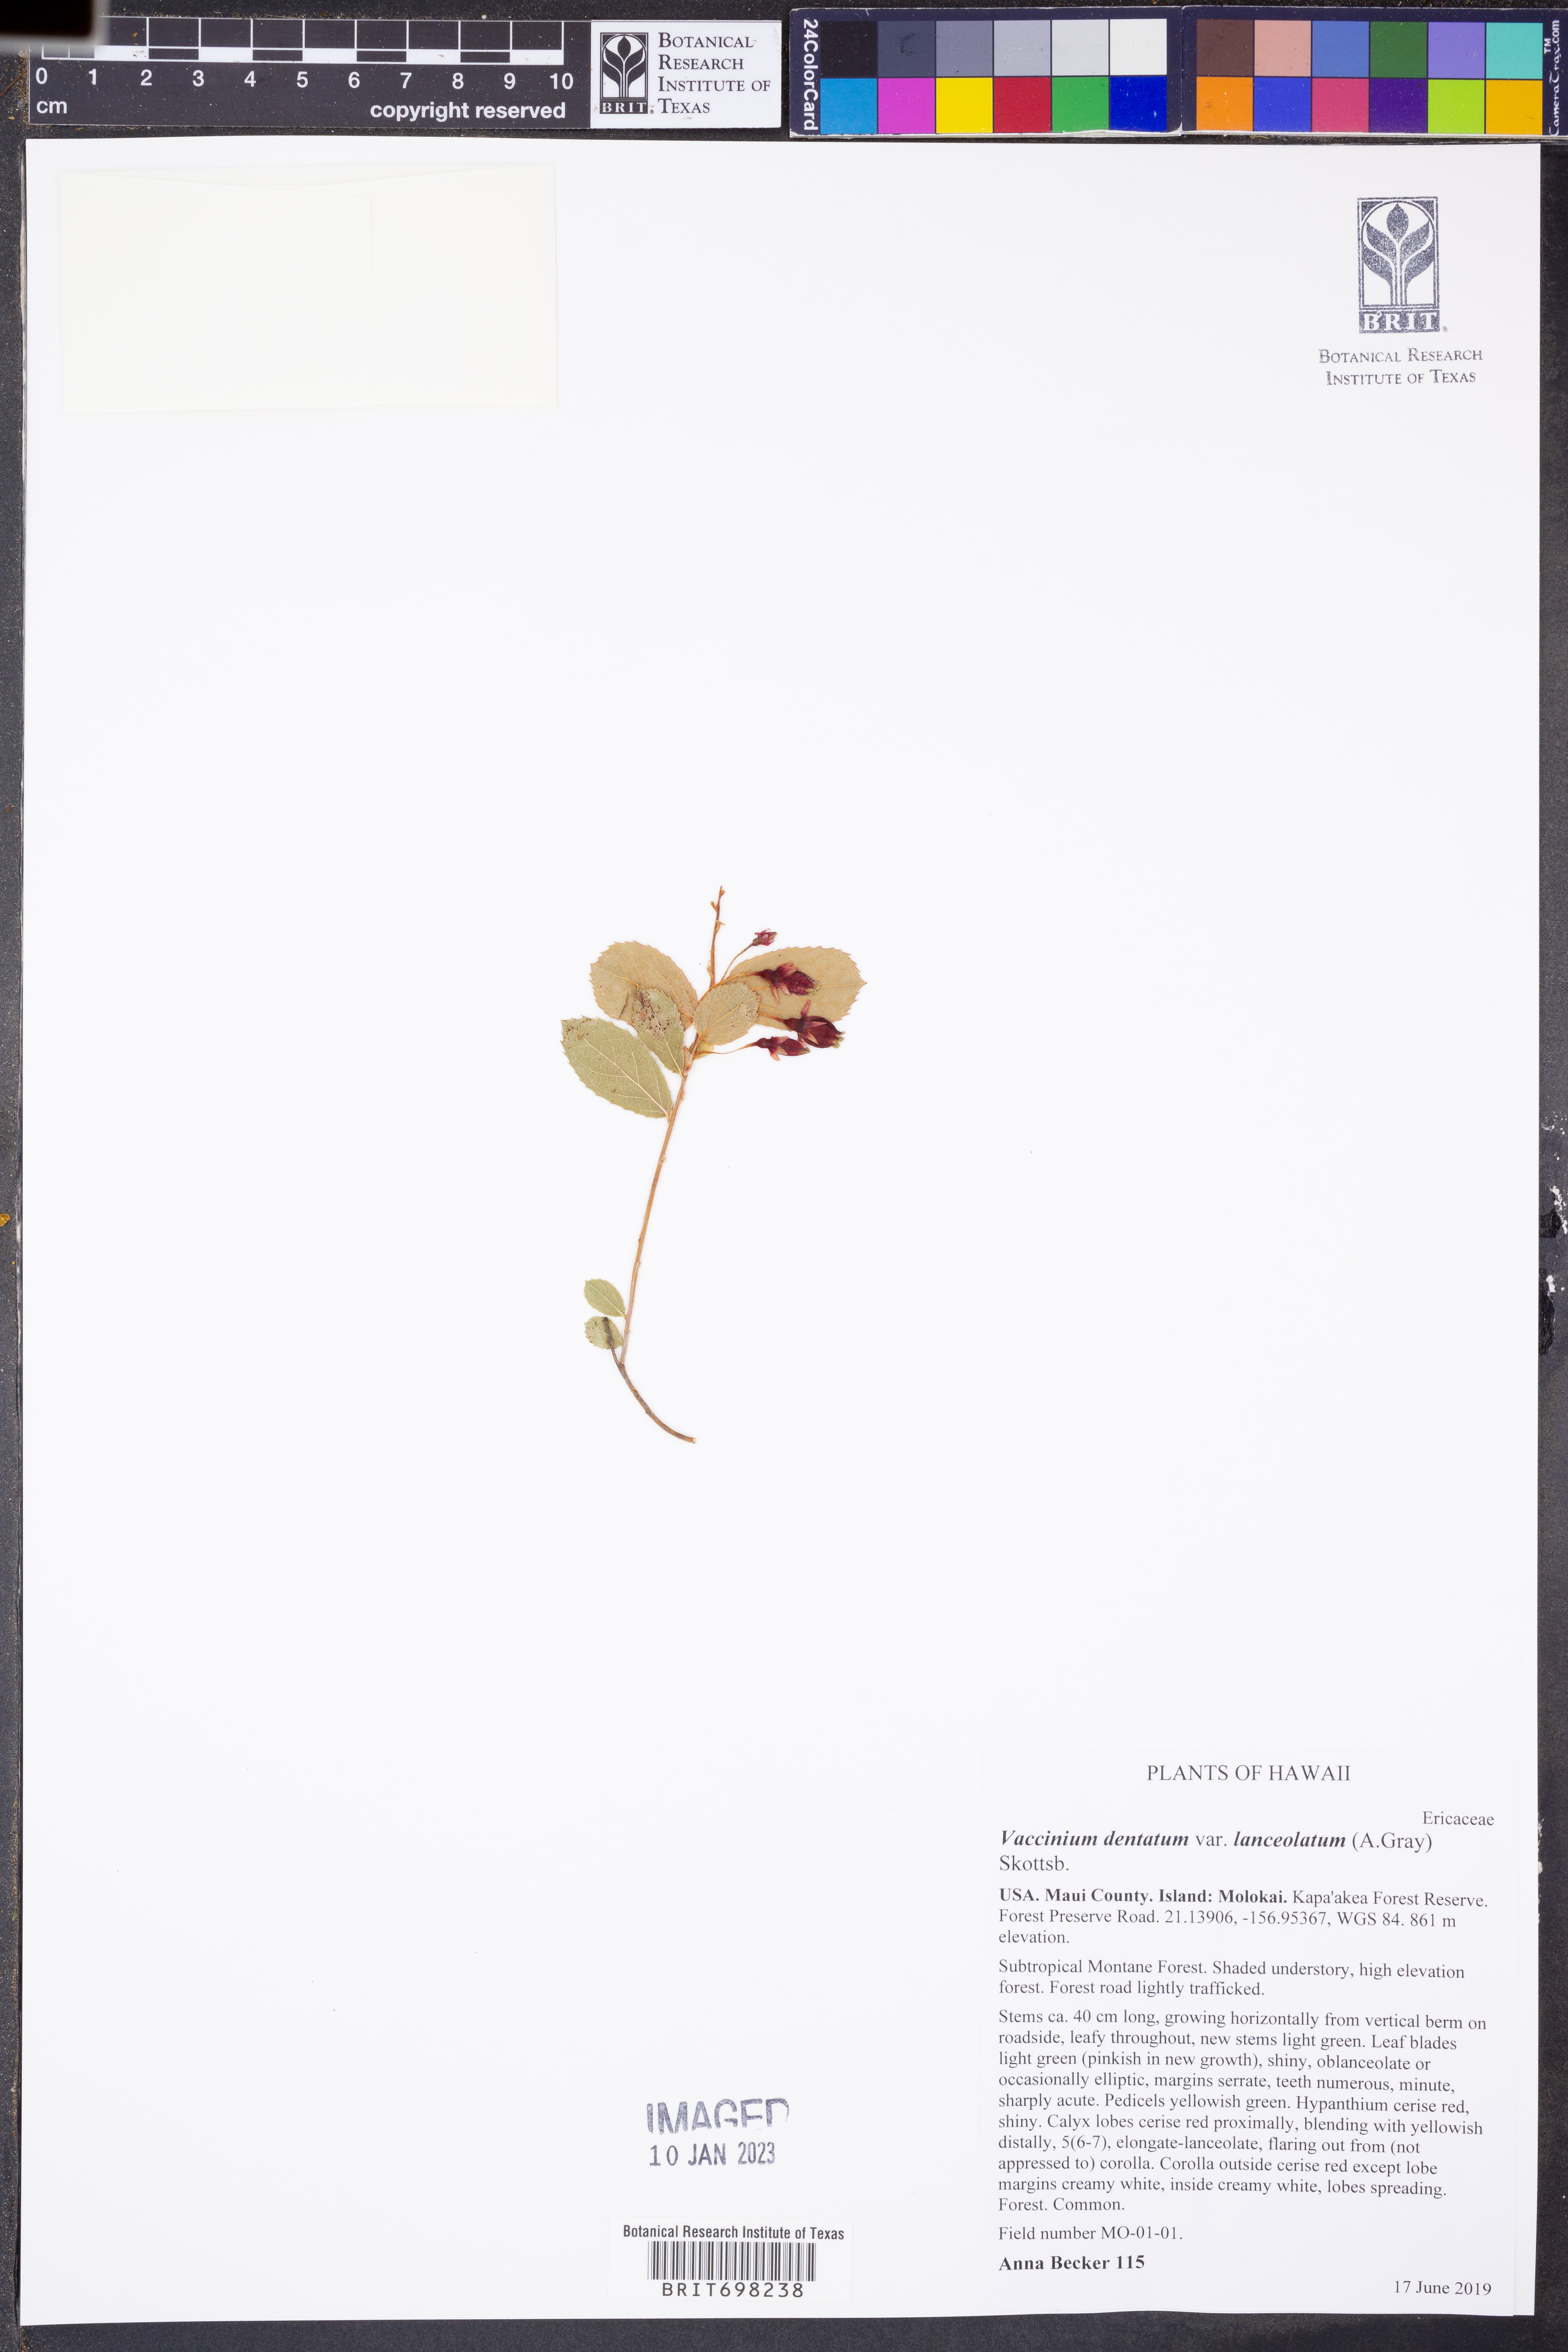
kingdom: Plantae
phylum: Tracheophyta
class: Magnoliopsida
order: Ericales
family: Ericaceae
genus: Vaccinium
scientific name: Vaccinium dentatum
